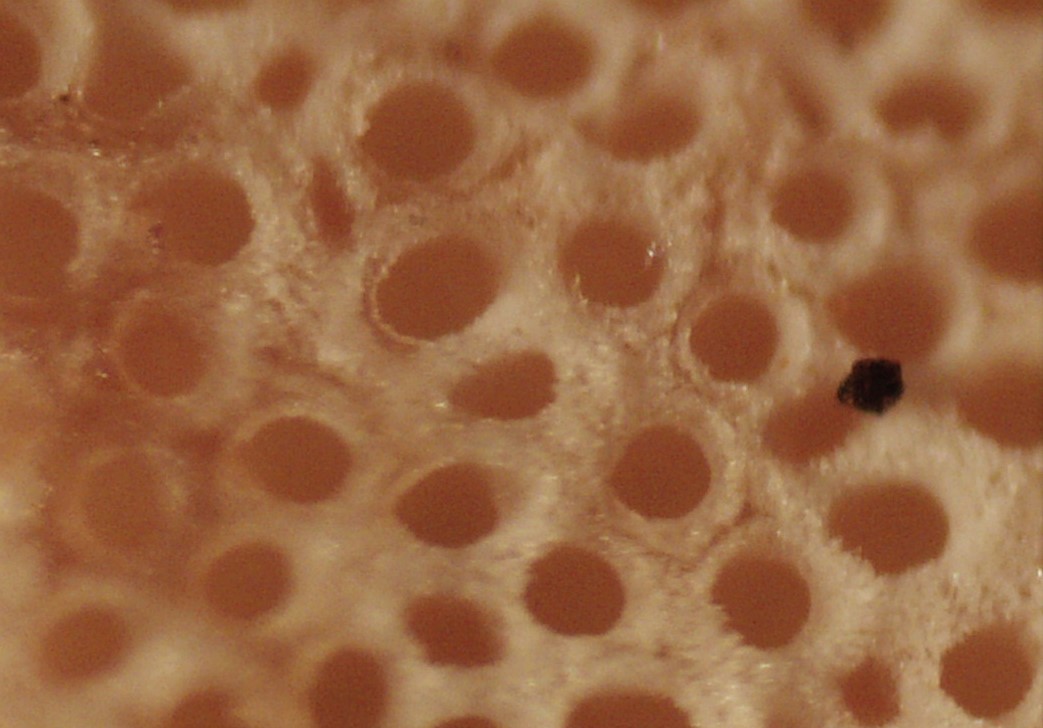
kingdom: Fungi
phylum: Basidiomycota
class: Agaricomycetes
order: Polyporales
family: Irpicaceae
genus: Vitreoporus
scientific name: Vitreoporus dichrous
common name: tofarvet foldporesvamp
